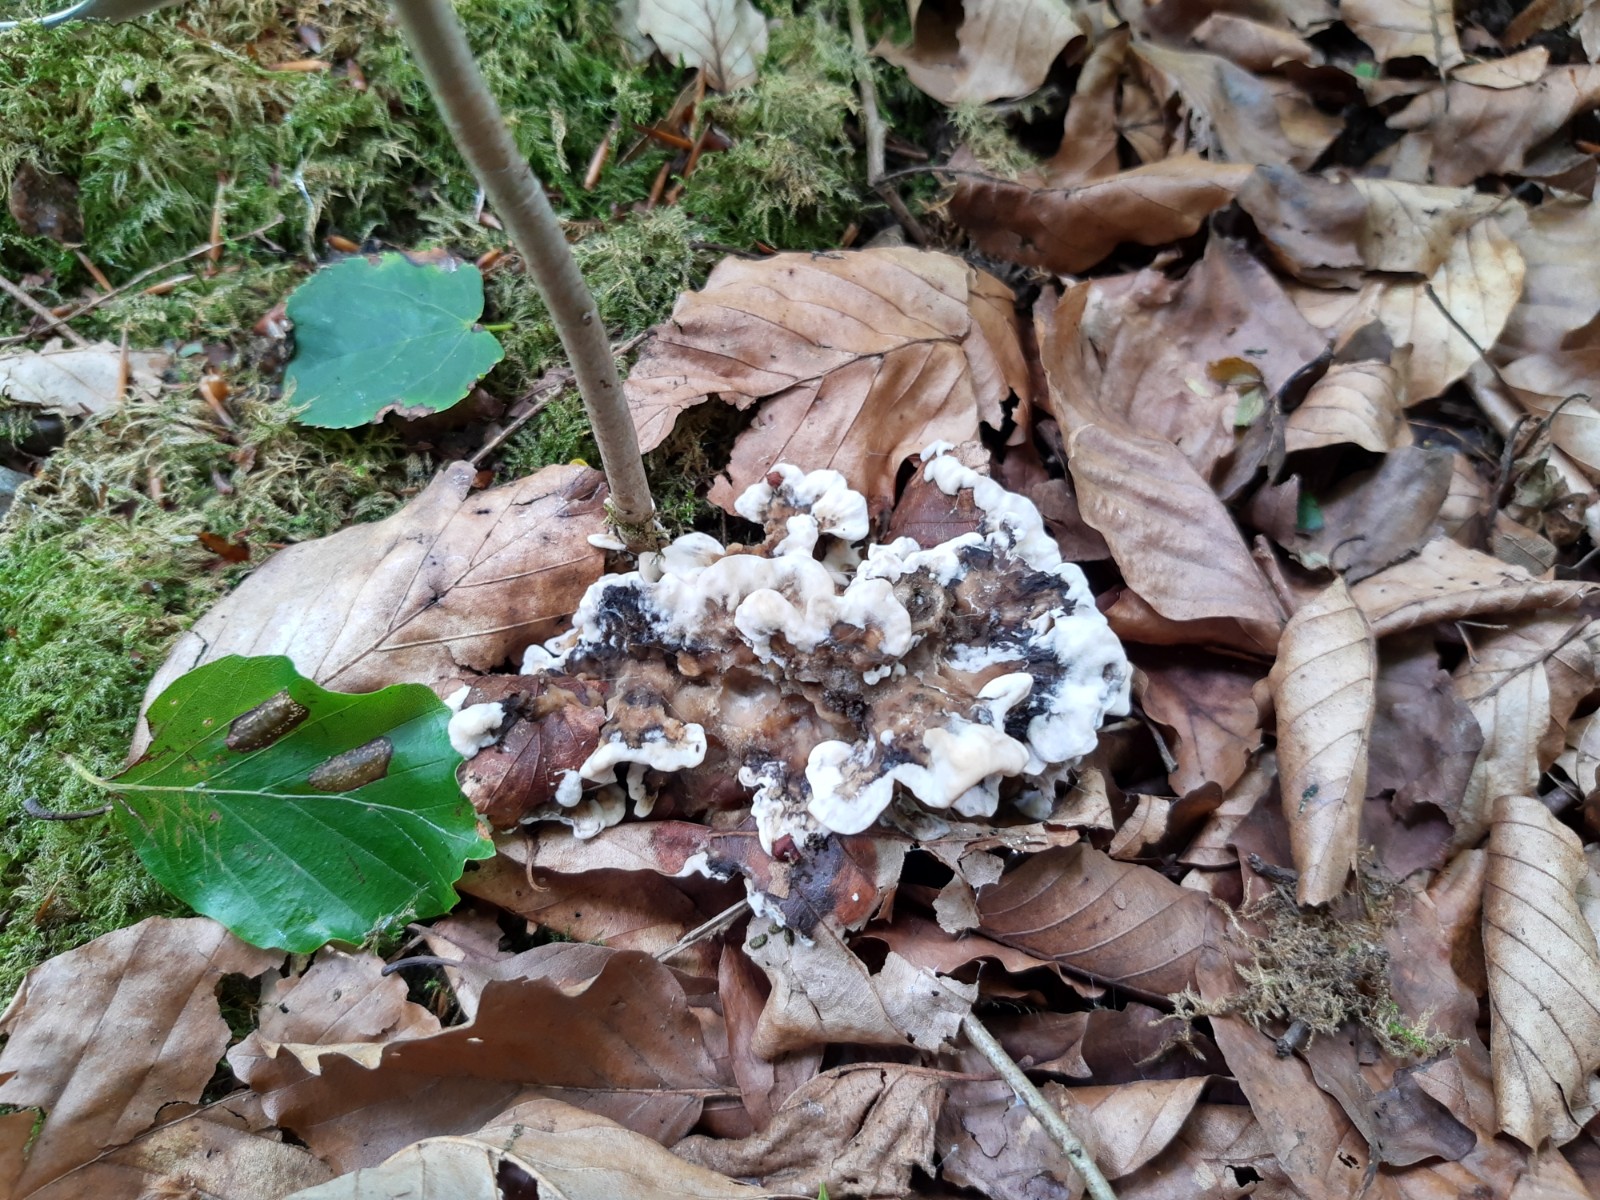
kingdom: Fungi
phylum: Basidiomycota
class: Agaricomycetes
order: Polyporales
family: Phanerochaetaceae
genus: Bjerkandera
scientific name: Bjerkandera adusta
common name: sveden sodporesvamp
